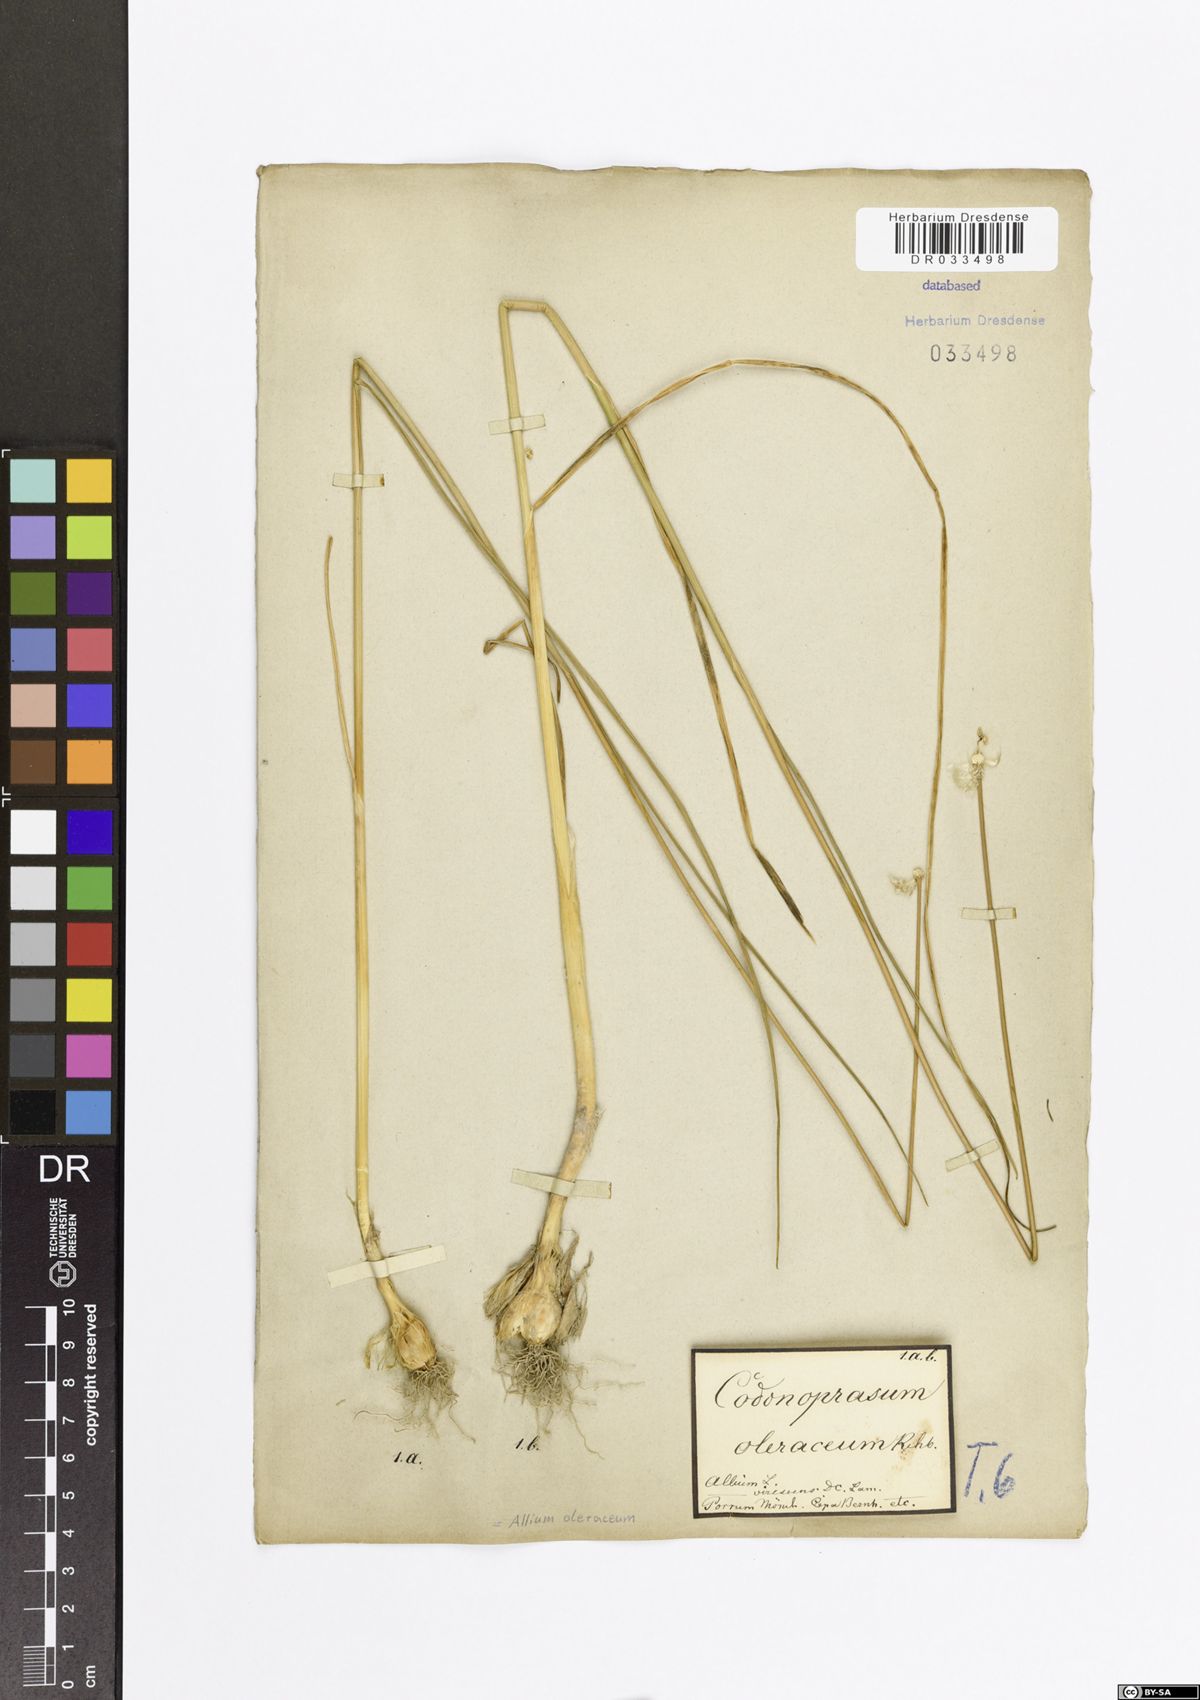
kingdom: Plantae
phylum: Tracheophyta
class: Liliopsida
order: Asparagales
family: Amaryllidaceae
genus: Allium
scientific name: Allium oleraceum
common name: Field garlic
